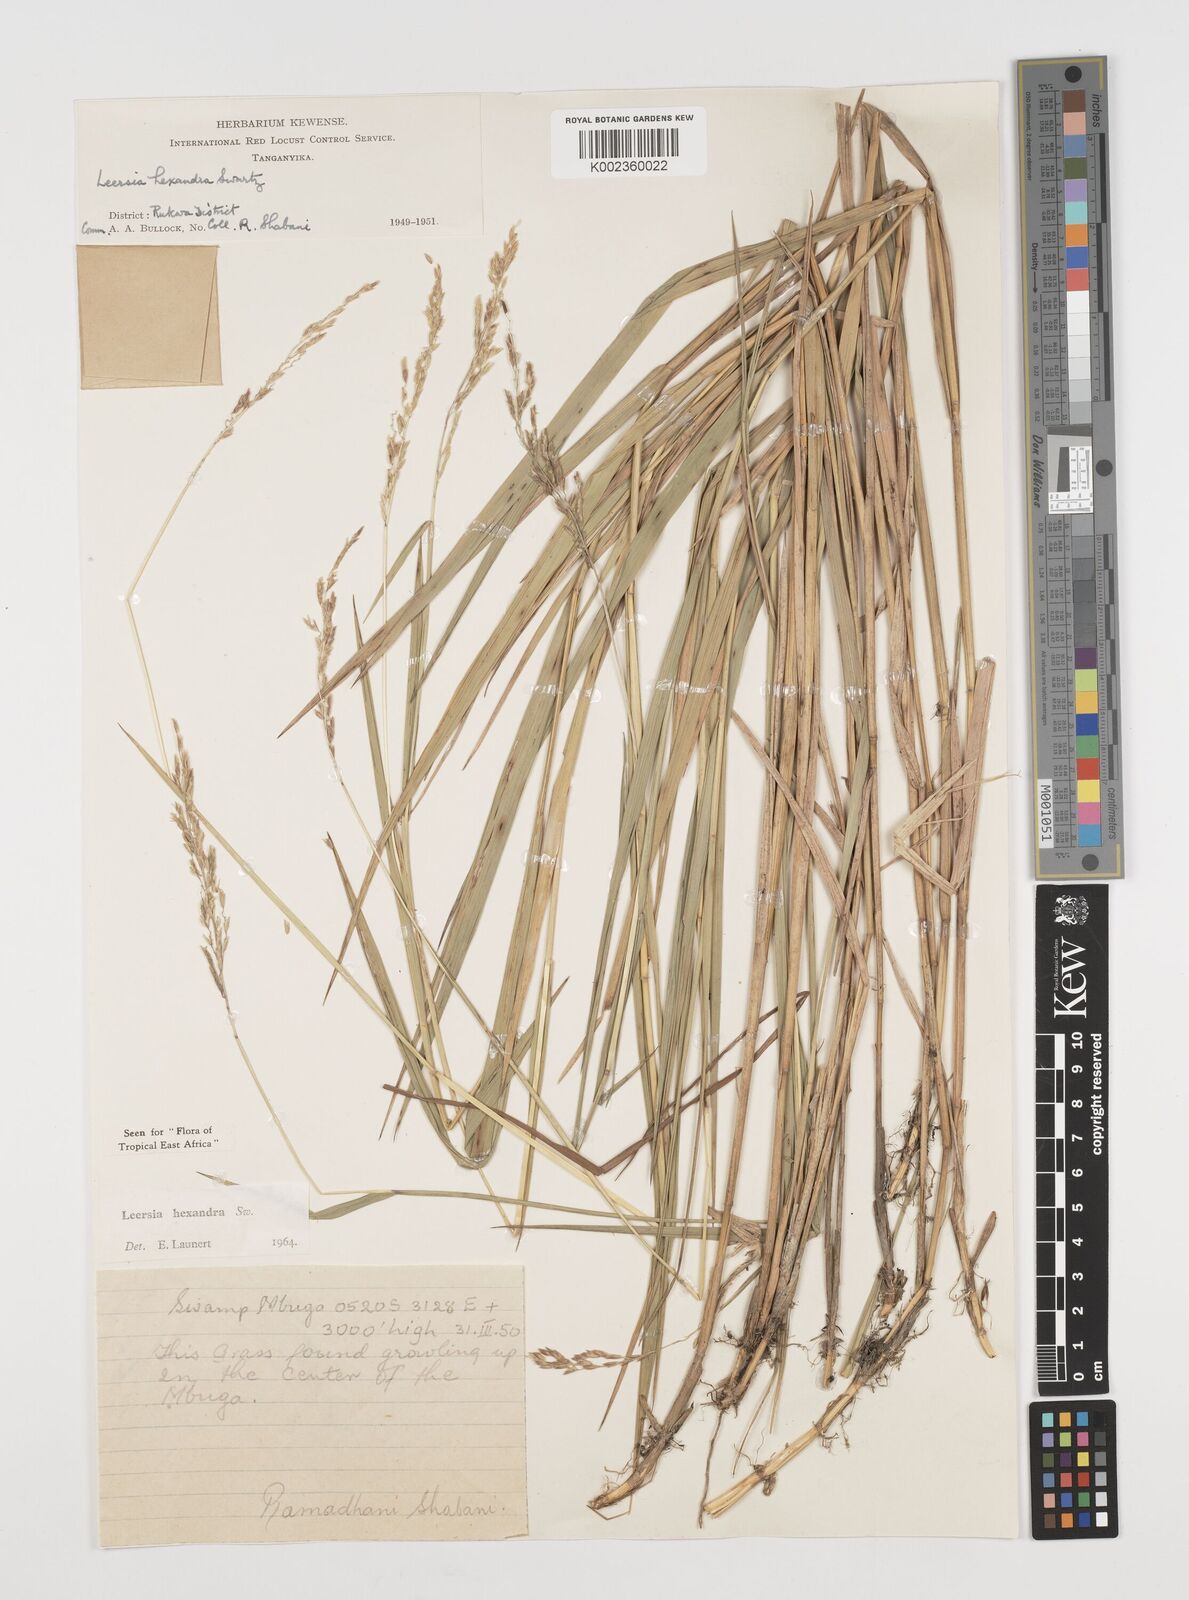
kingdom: Plantae
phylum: Tracheophyta
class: Liliopsida
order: Poales
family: Poaceae
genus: Leersia
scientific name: Leersia hexandra
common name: Southern cut grass
